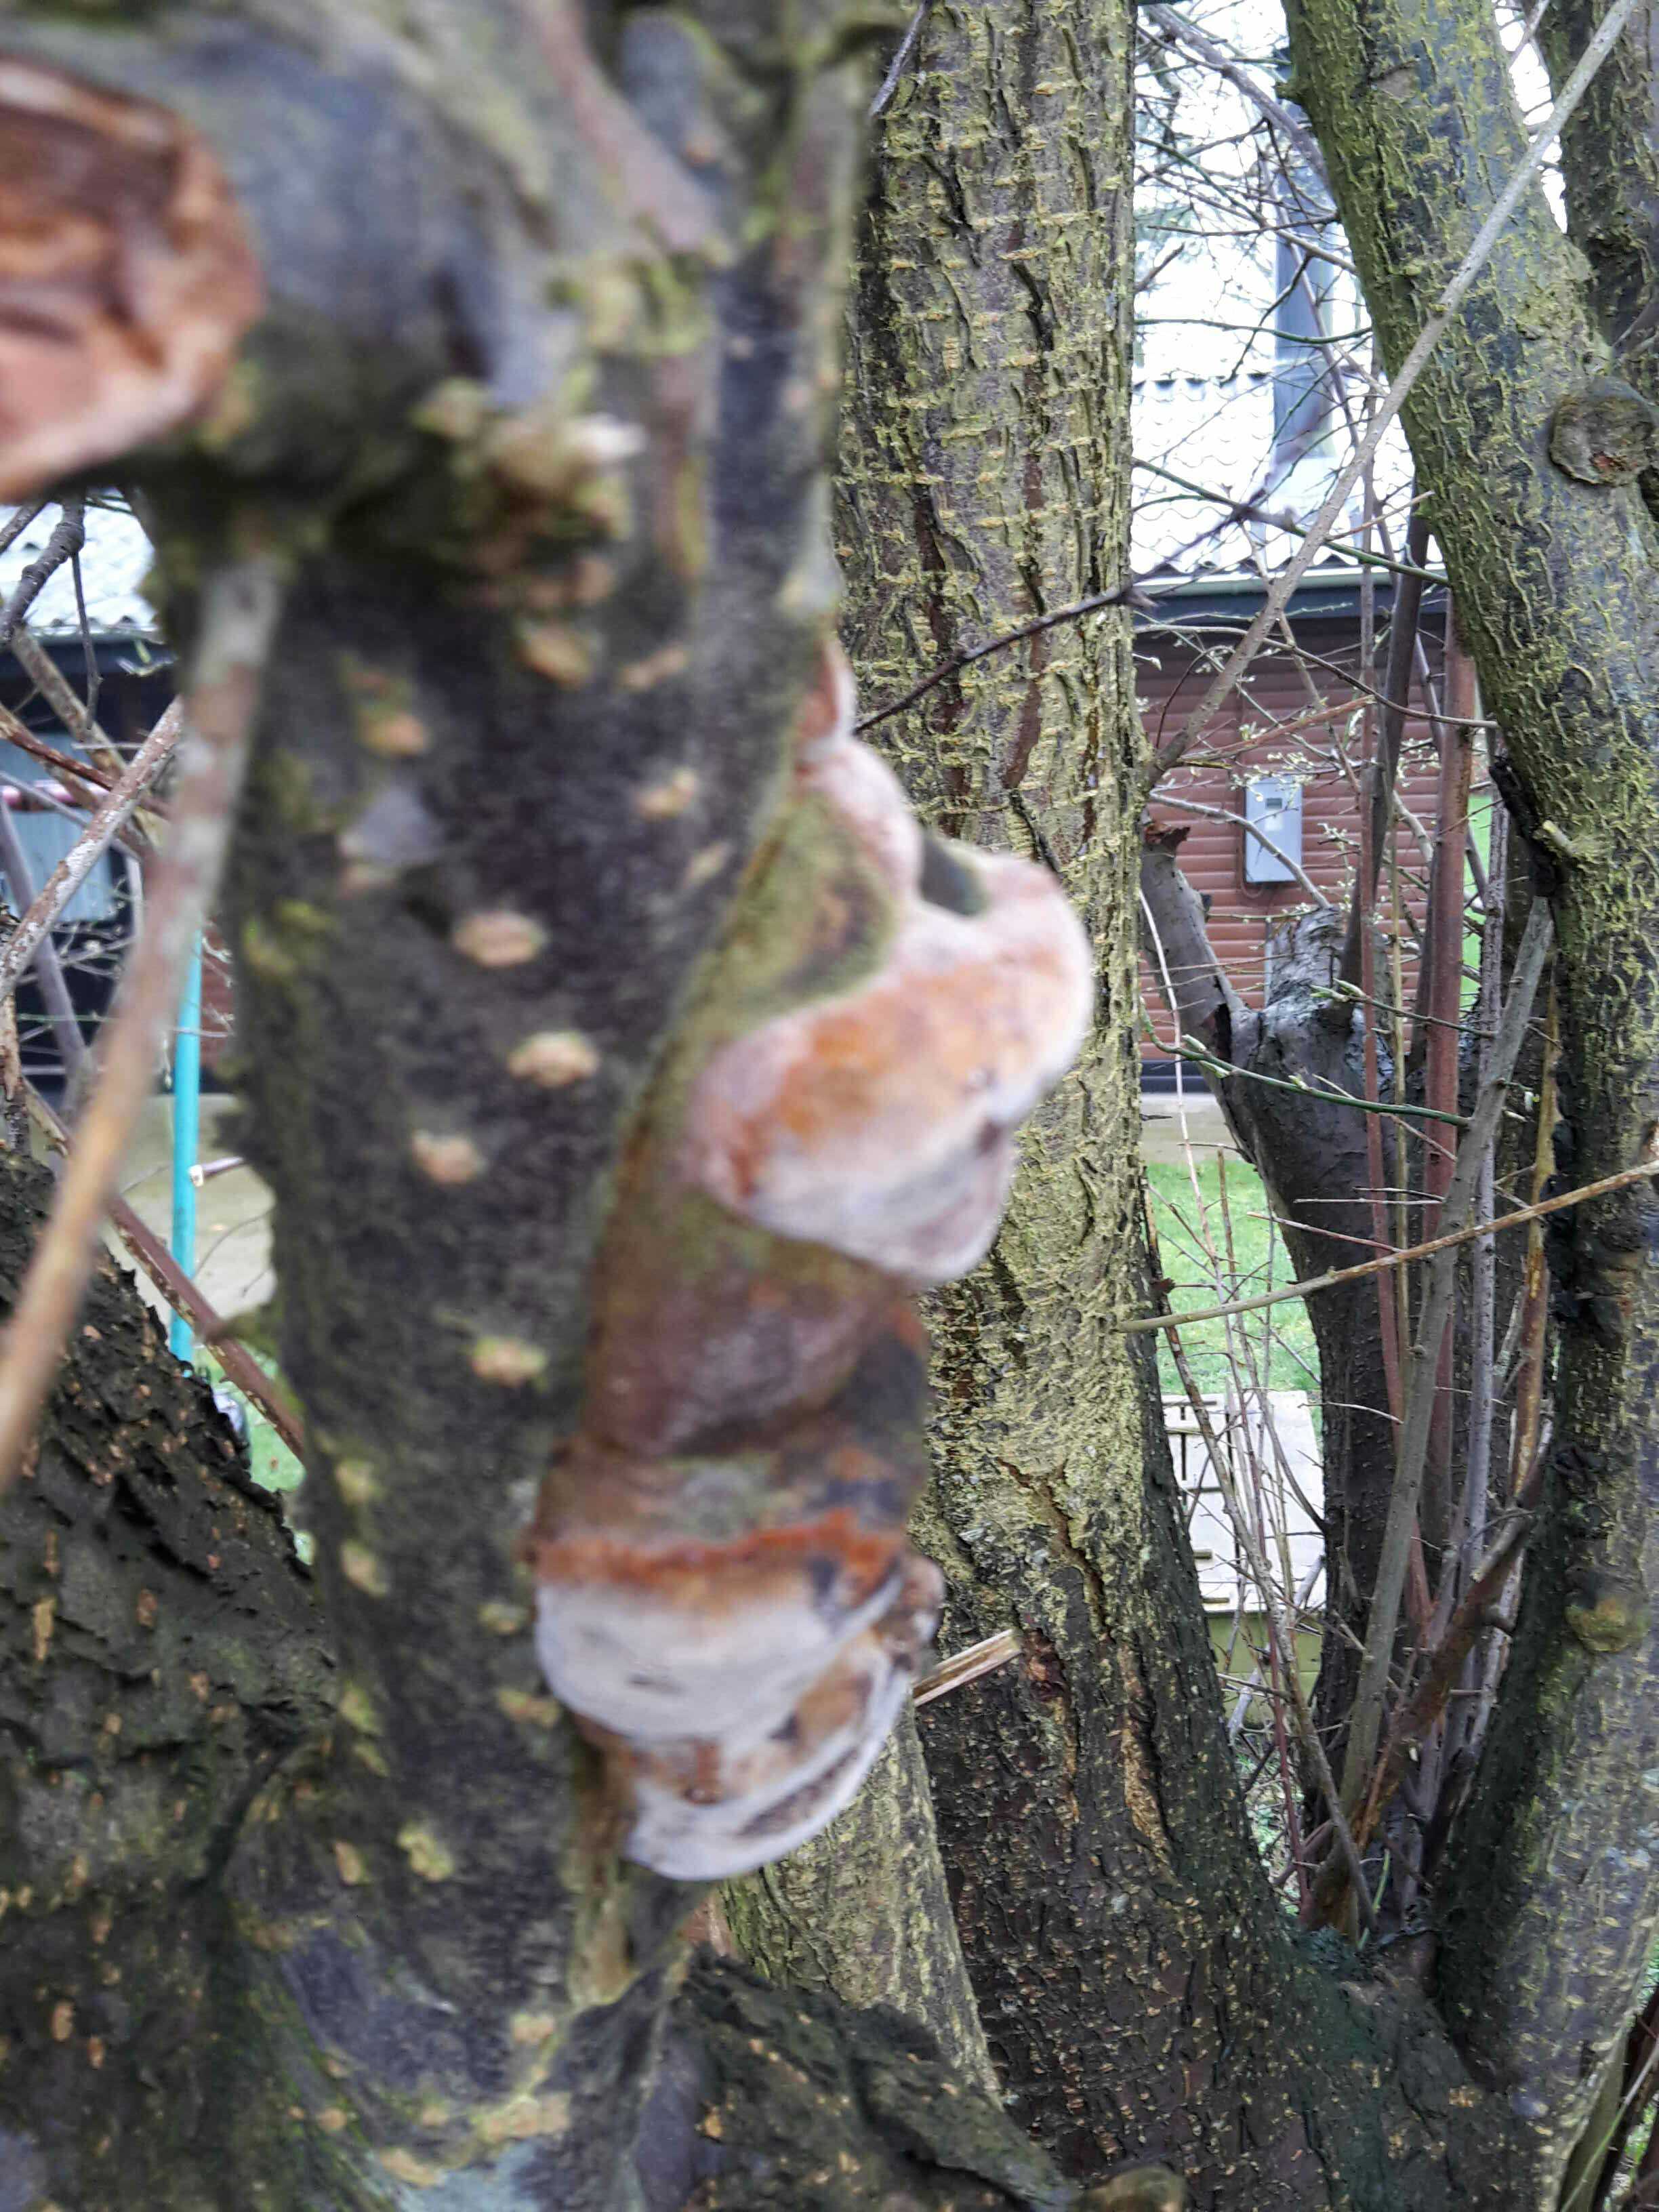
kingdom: Fungi
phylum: Basidiomycota
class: Agaricomycetes
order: Hymenochaetales
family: Hymenochaetaceae
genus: Phellinus
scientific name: Phellinus pomaceus
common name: blomme-ildporesvamp
